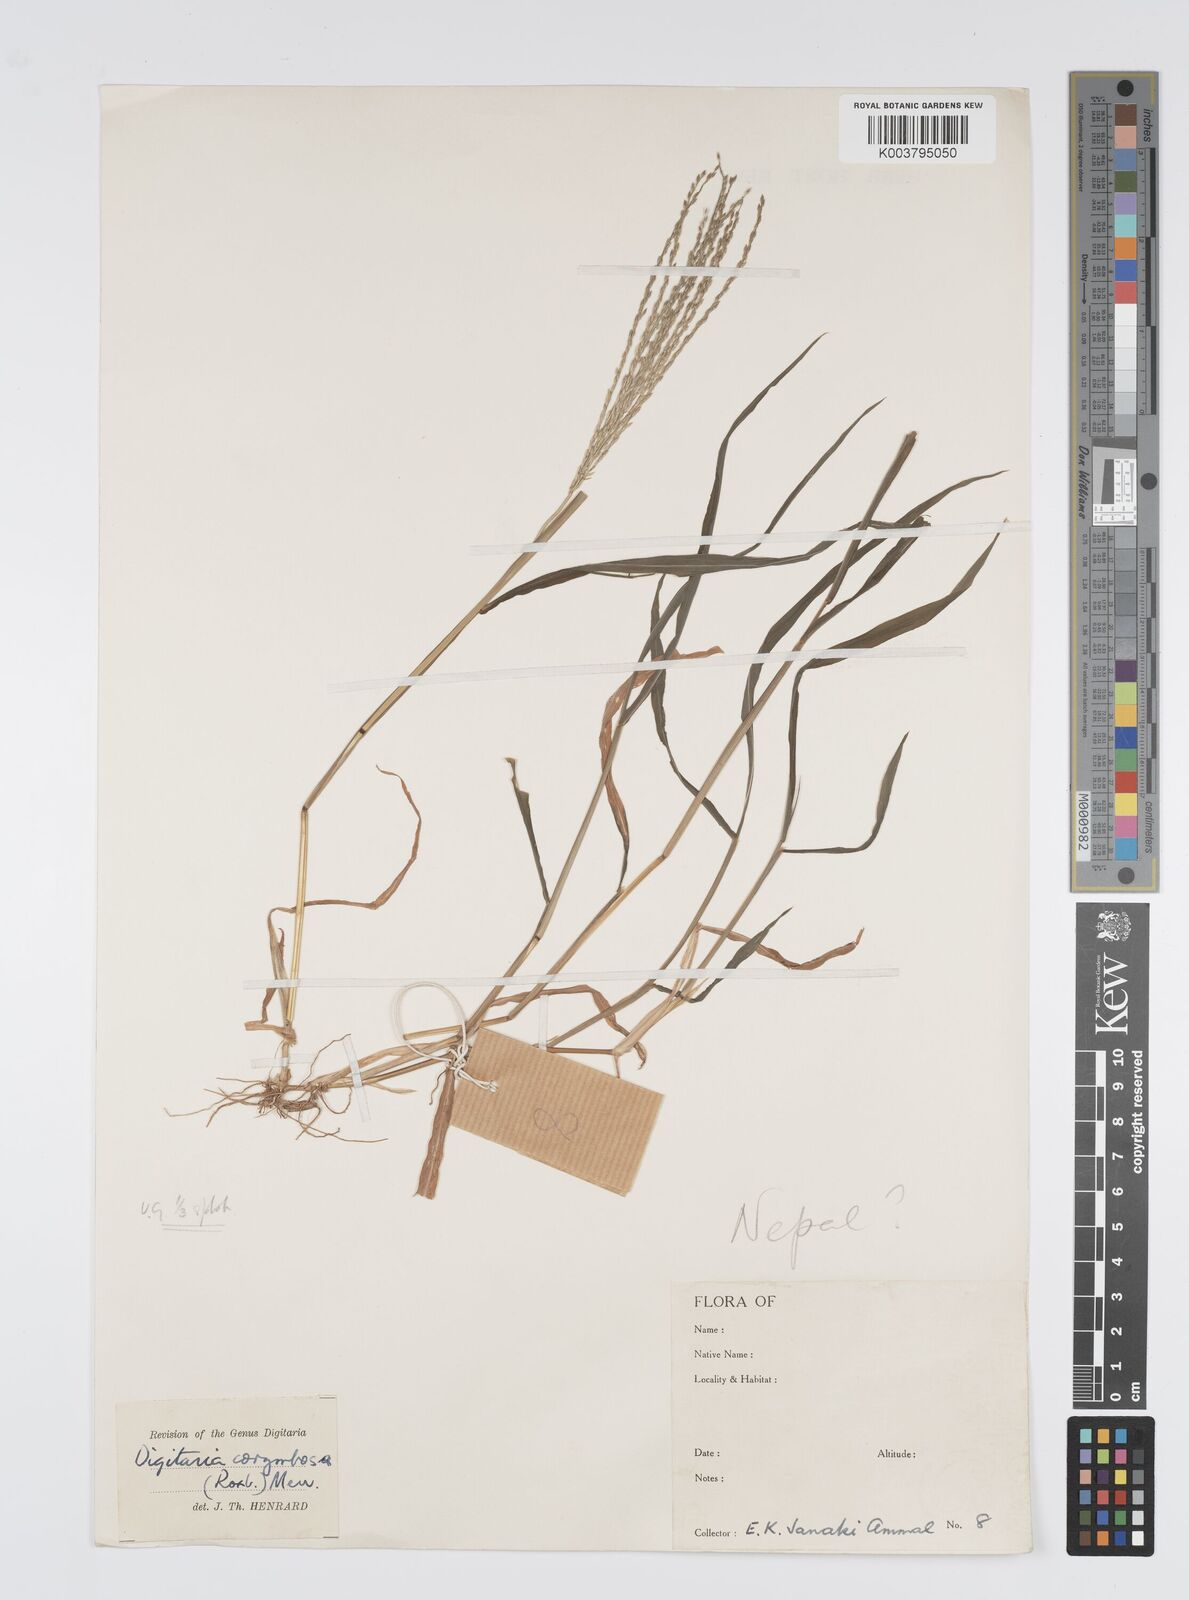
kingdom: Plantae
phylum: Tracheophyta
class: Liliopsida
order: Poales
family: Poaceae
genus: Digitaria
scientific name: Digitaria setigera
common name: East indian crabgrass
